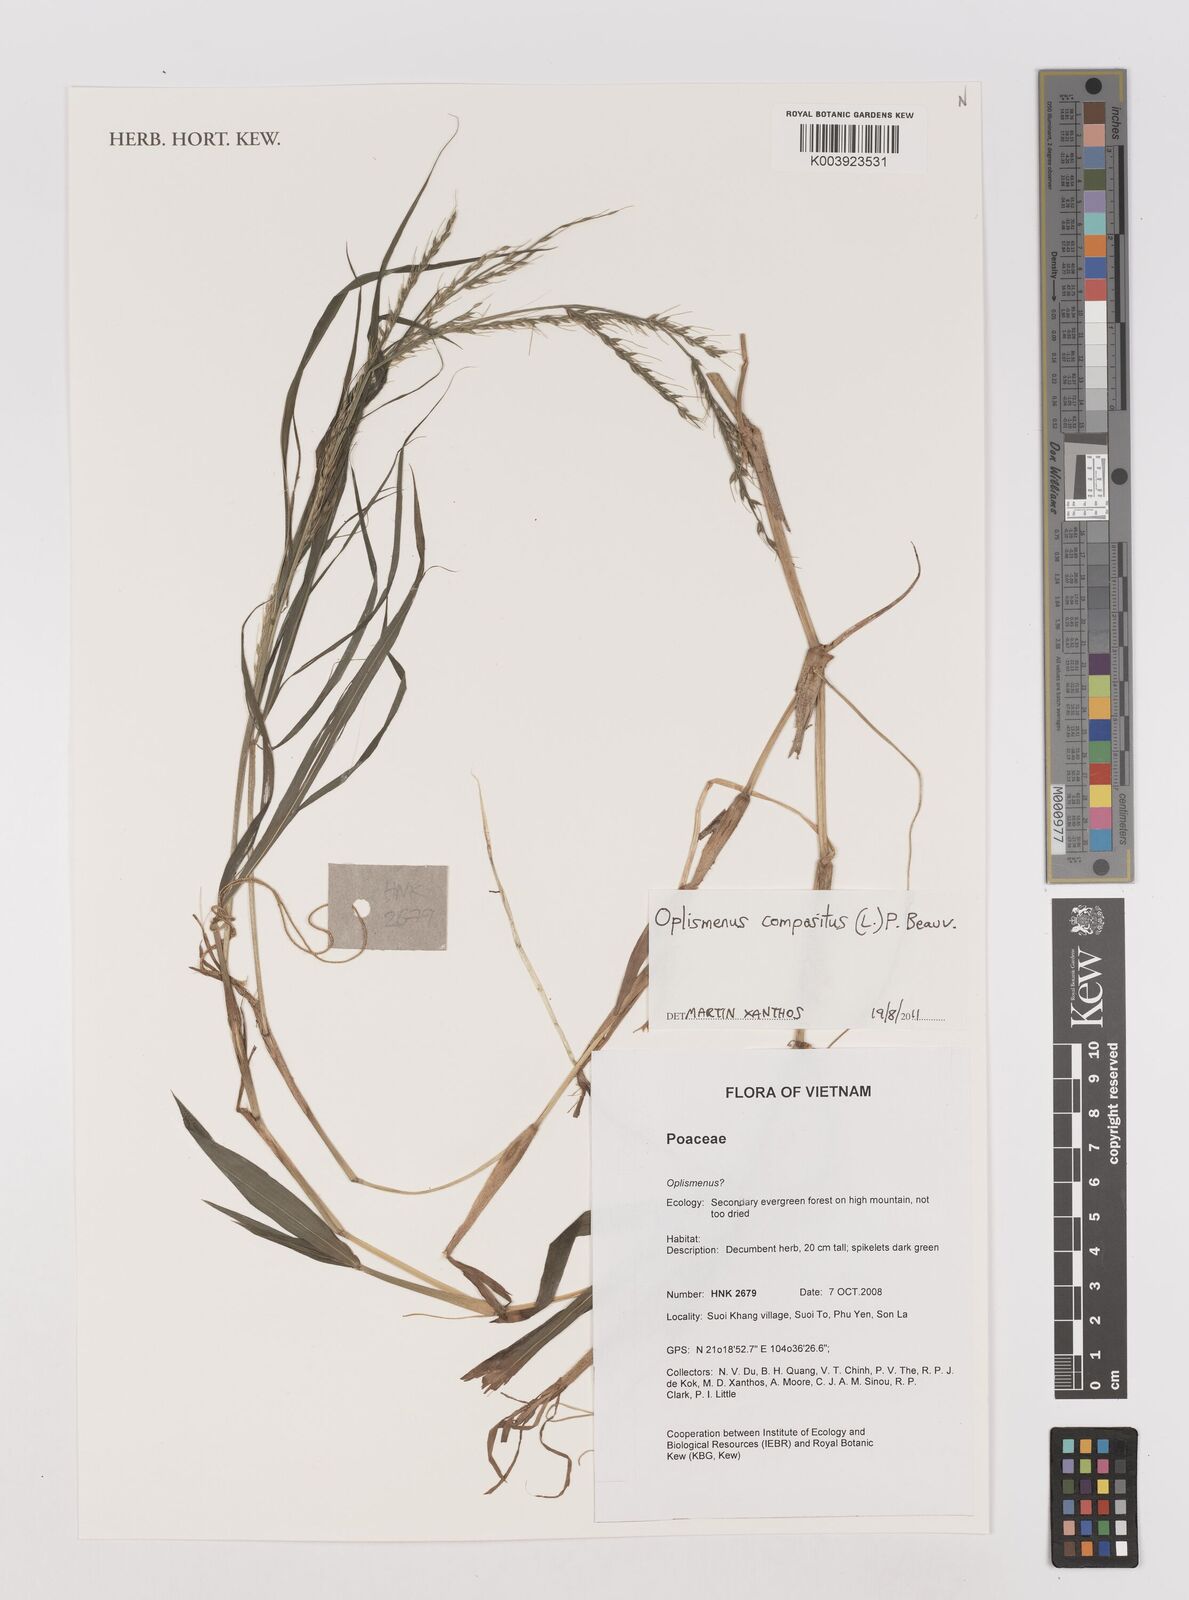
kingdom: Plantae
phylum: Tracheophyta
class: Liliopsida
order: Poales
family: Poaceae
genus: Oplismenus
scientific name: Oplismenus compositus
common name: Running mountain grass
